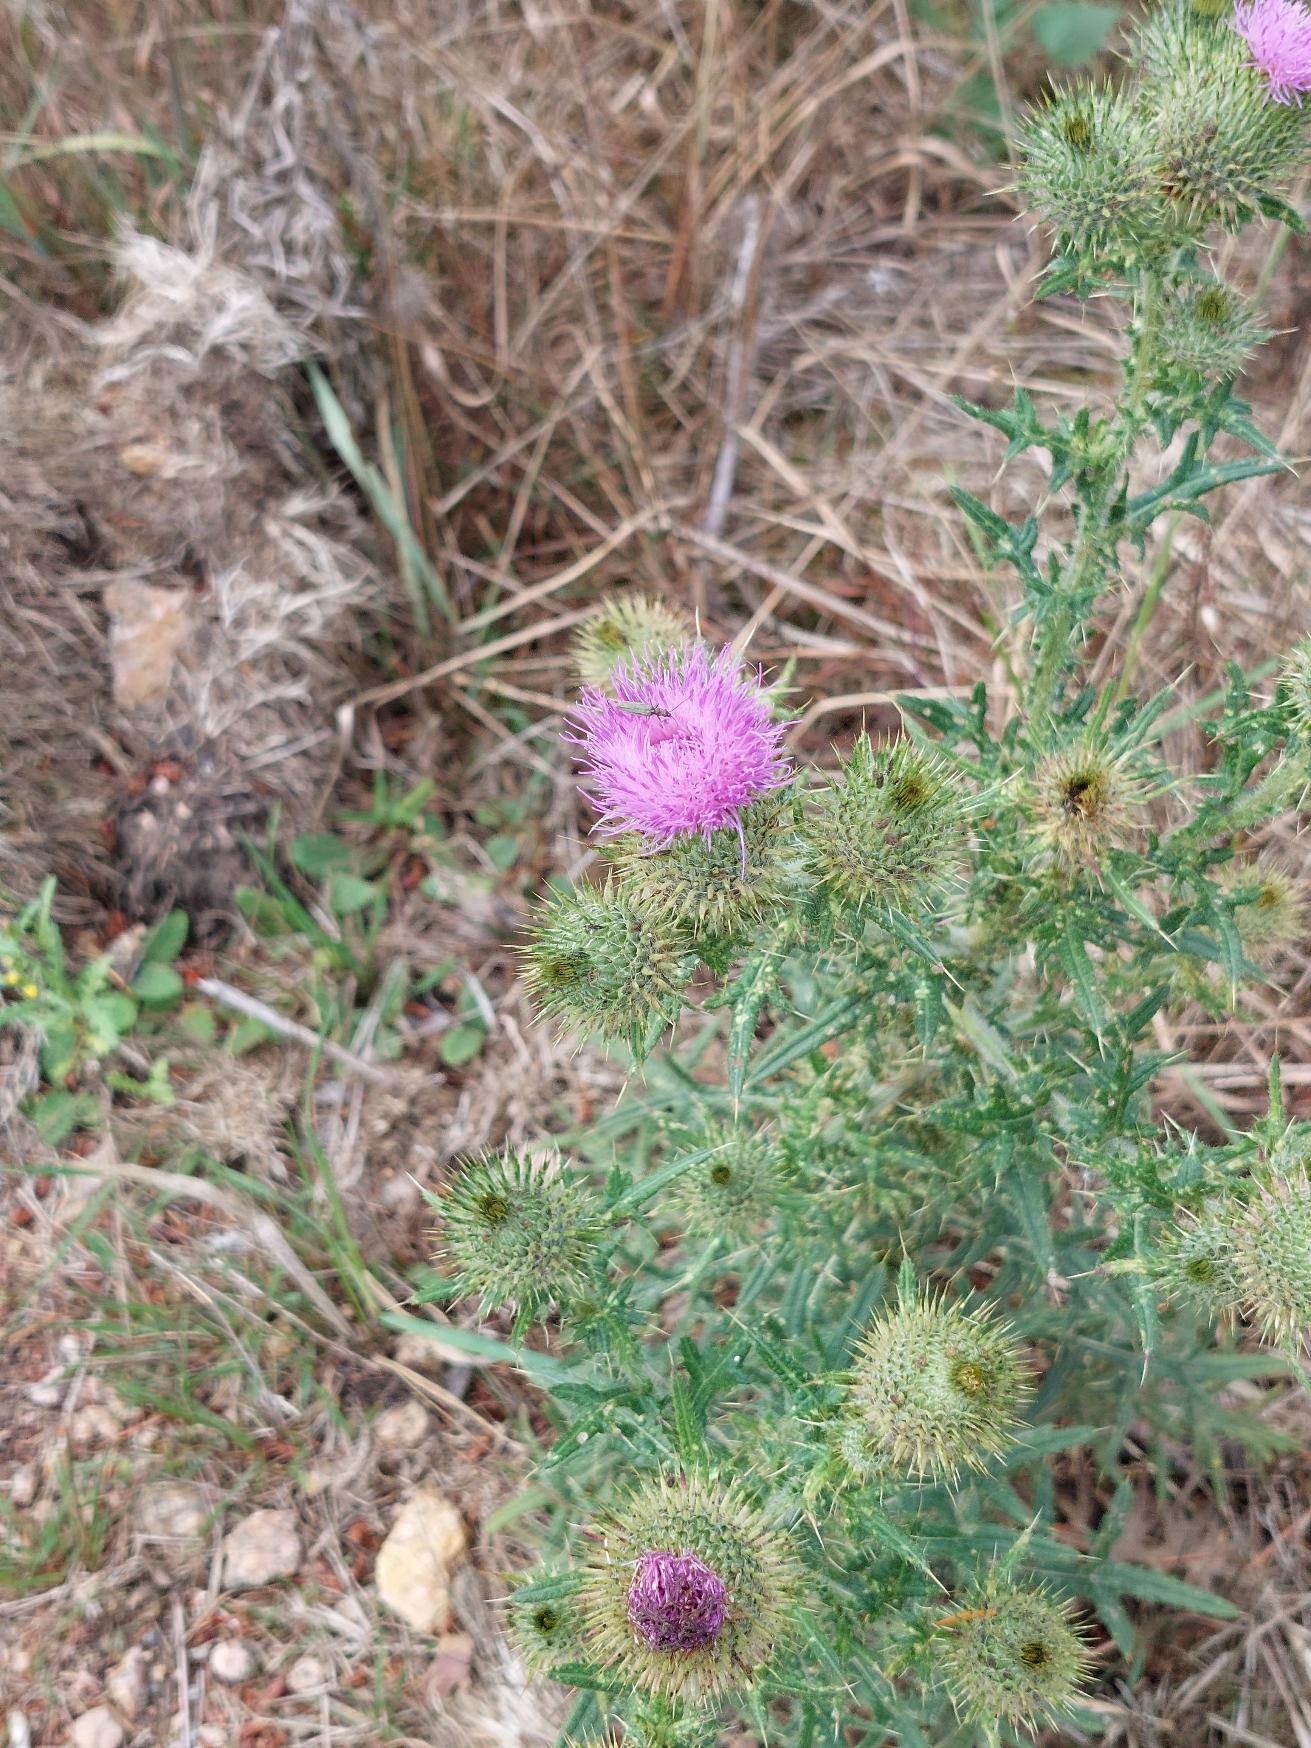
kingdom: Plantae
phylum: Tracheophyta
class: Magnoliopsida
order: Asterales
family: Asteraceae
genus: Cirsium
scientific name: Cirsium vulgare
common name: Horse-tidsel
